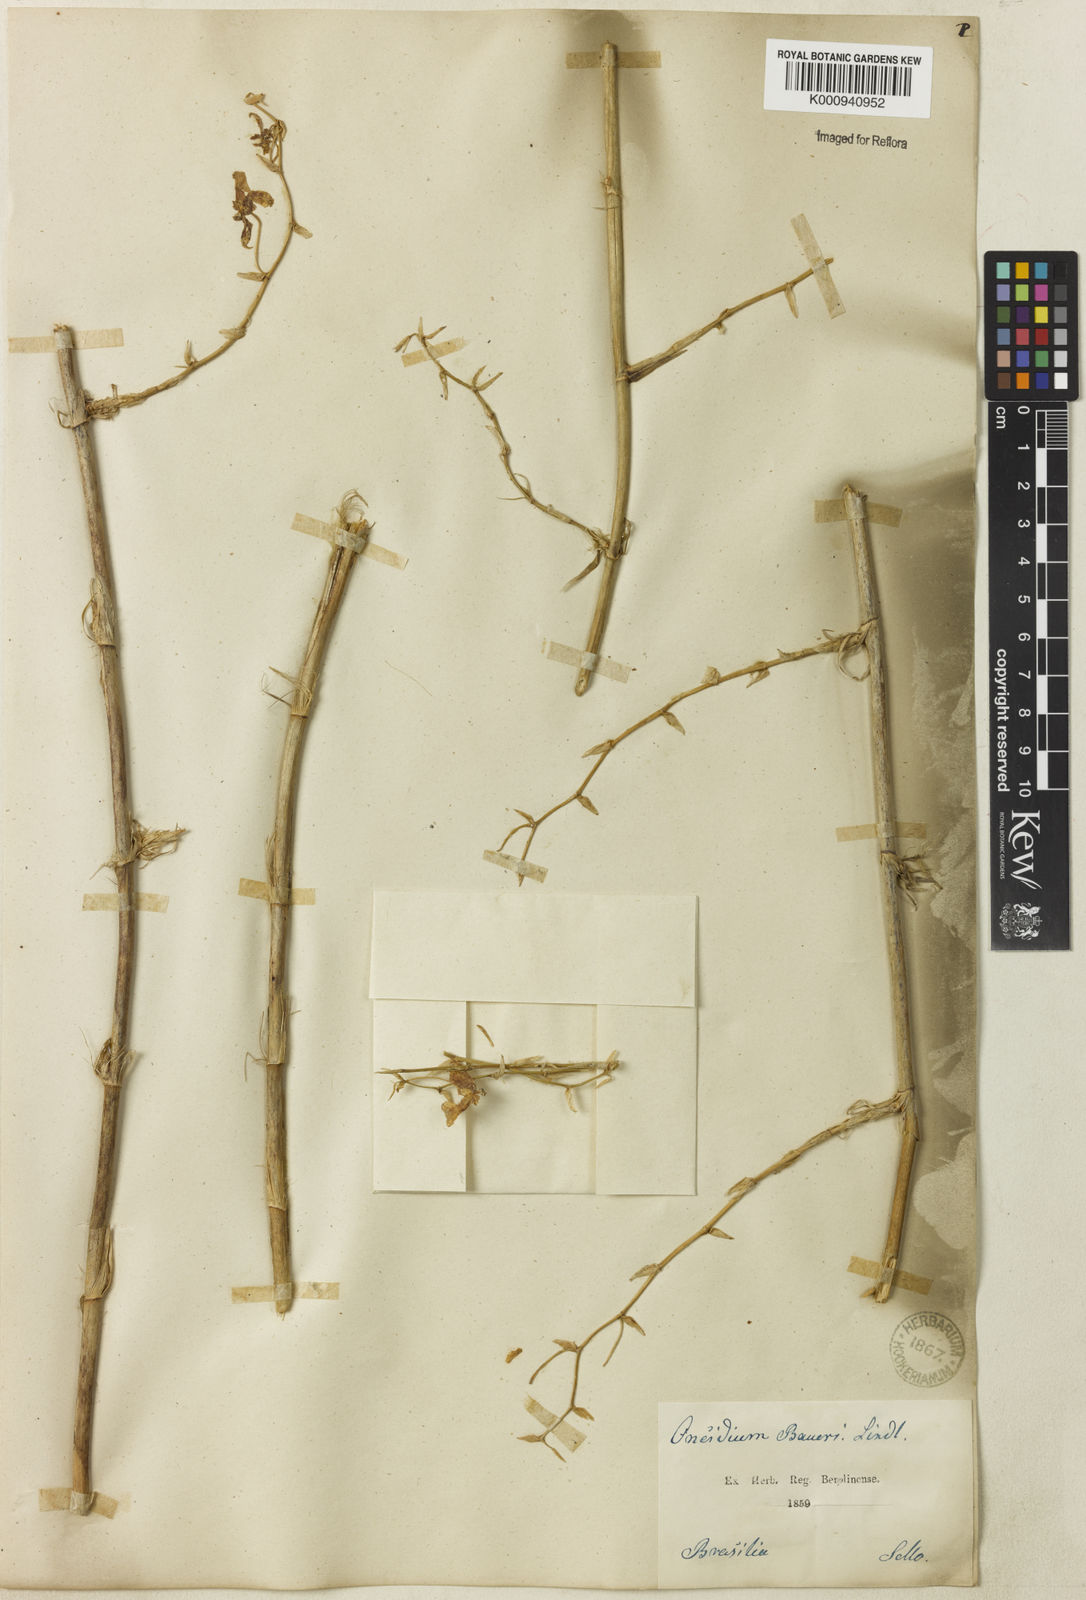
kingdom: Plantae
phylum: Tracheophyta
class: Liliopsida
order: Asparagales
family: Orchidaceae
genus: Oncidium
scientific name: Oncidium baueri
